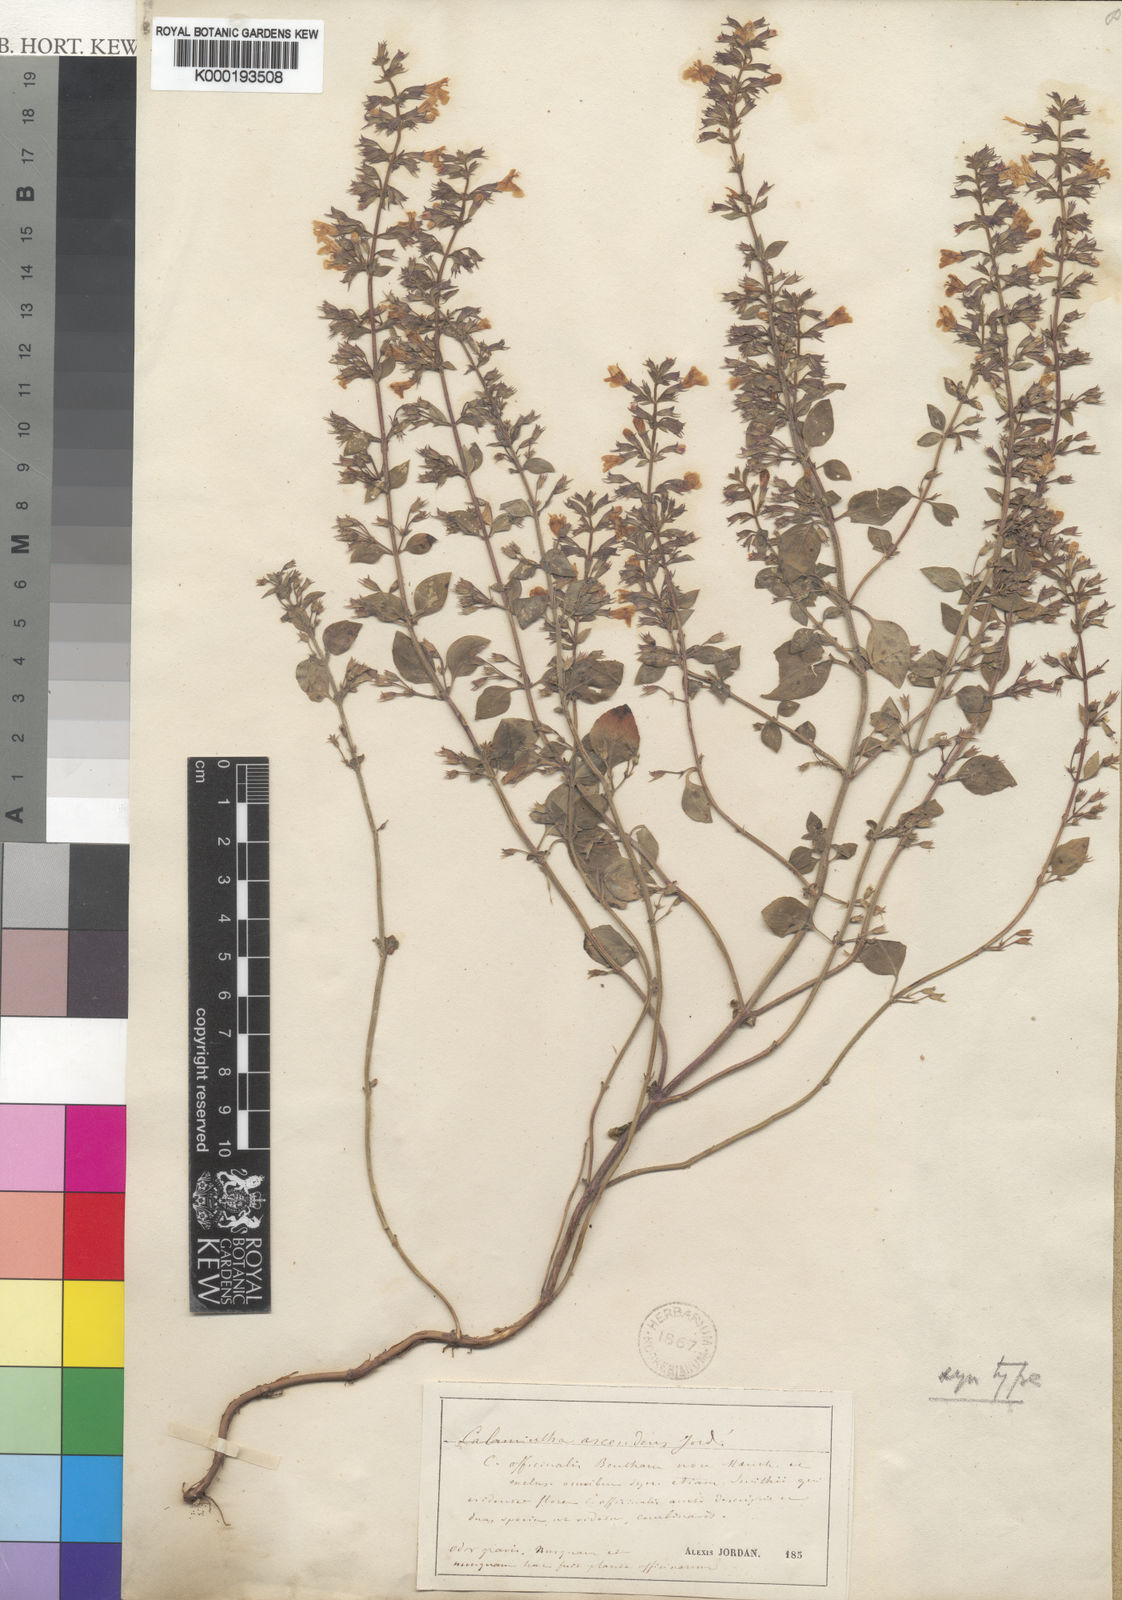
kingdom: Plantae
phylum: Tracheophyta
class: Magnoliopsida
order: Lamiales
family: Lamiaceae
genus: Clinopodium
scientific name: Clinopodium menthifolium
